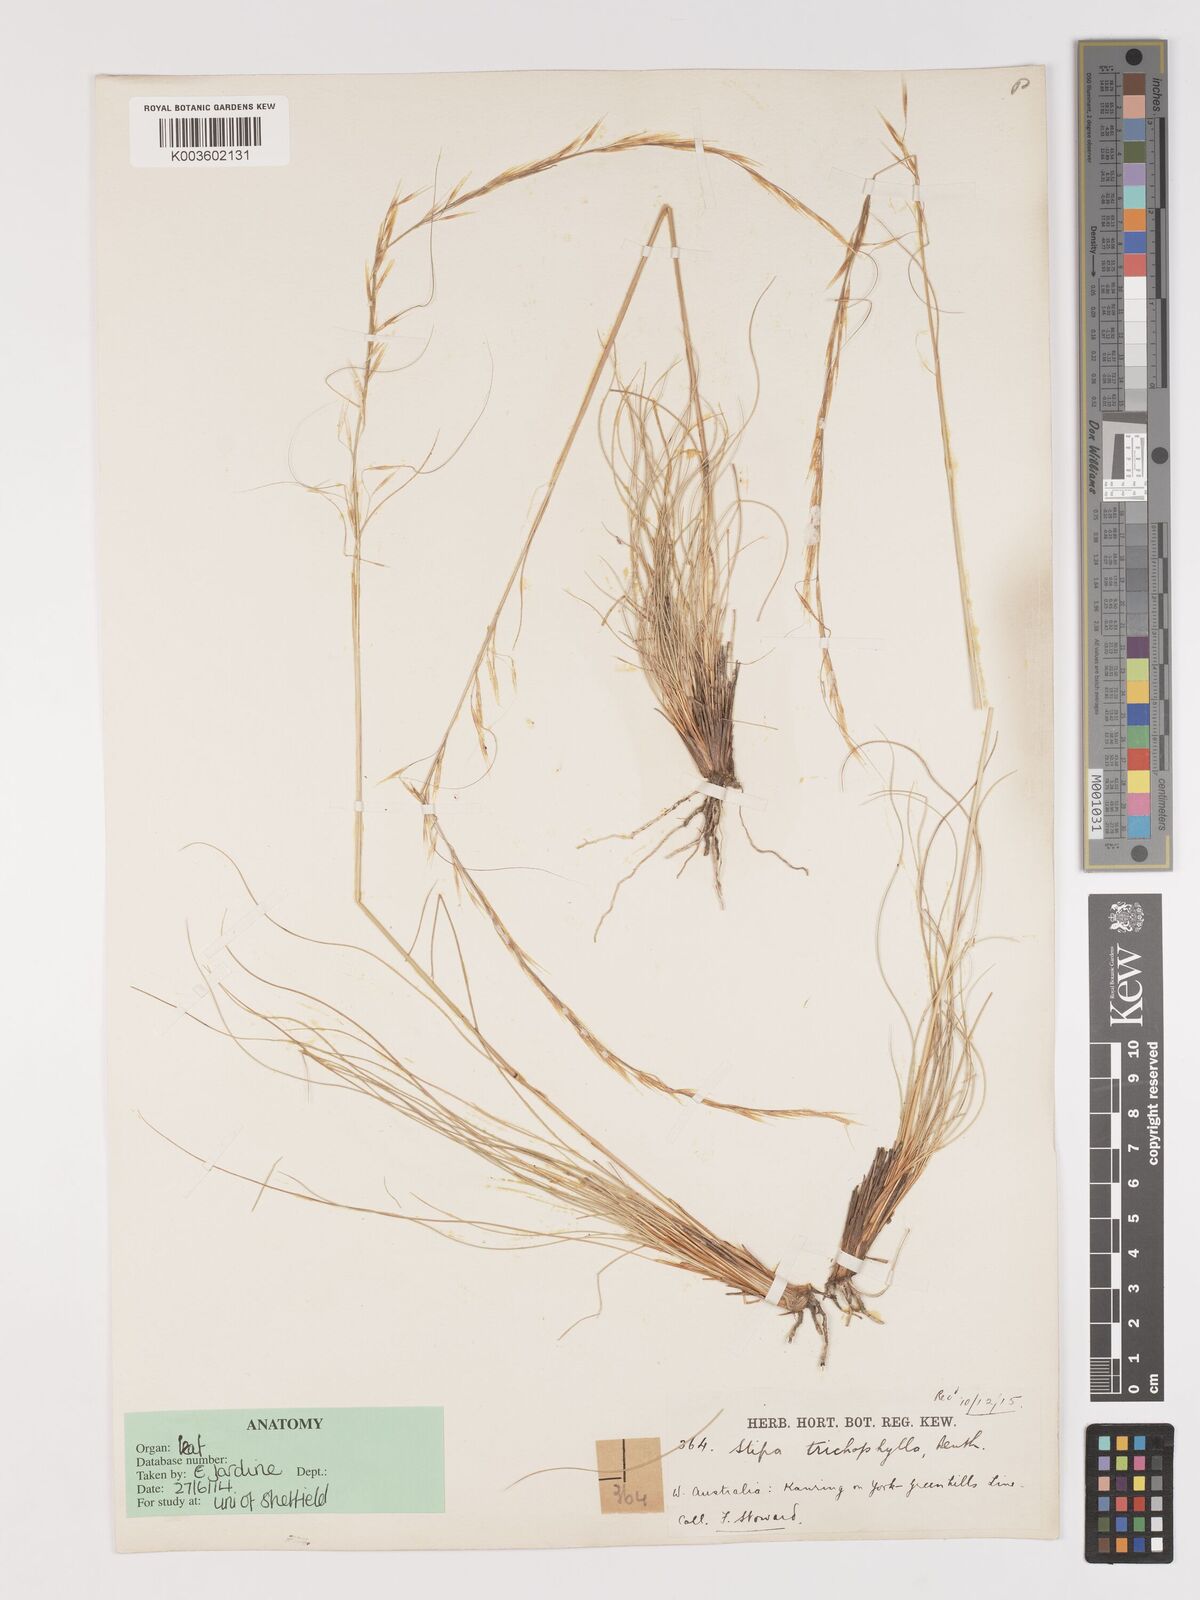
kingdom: Plantae
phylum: Tracheophyta
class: Liliopsida
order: Poales
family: Poaceae
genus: Austrostipa
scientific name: Austrostipa trichophylla
